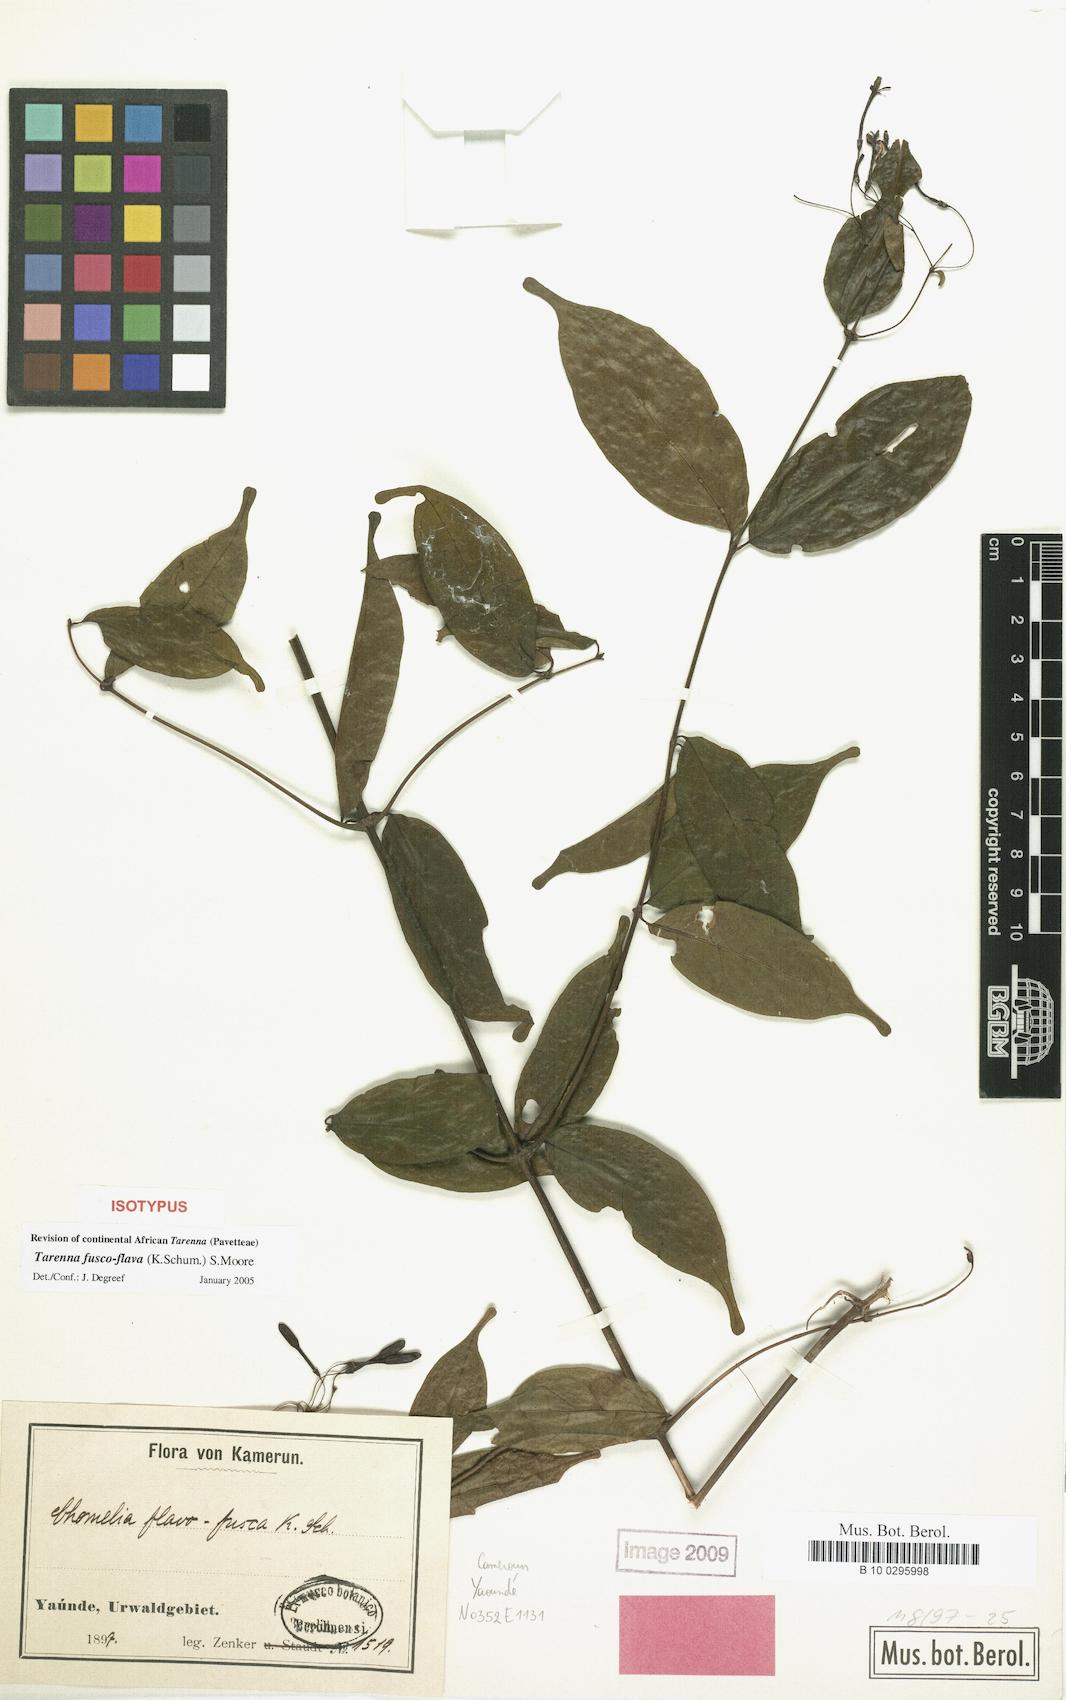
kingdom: Plantae
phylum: Tracheophyta
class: Magnoliopsida
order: Gentianales
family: Rubiaceae
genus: Tarenna
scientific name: Tarenna fuscoflava
